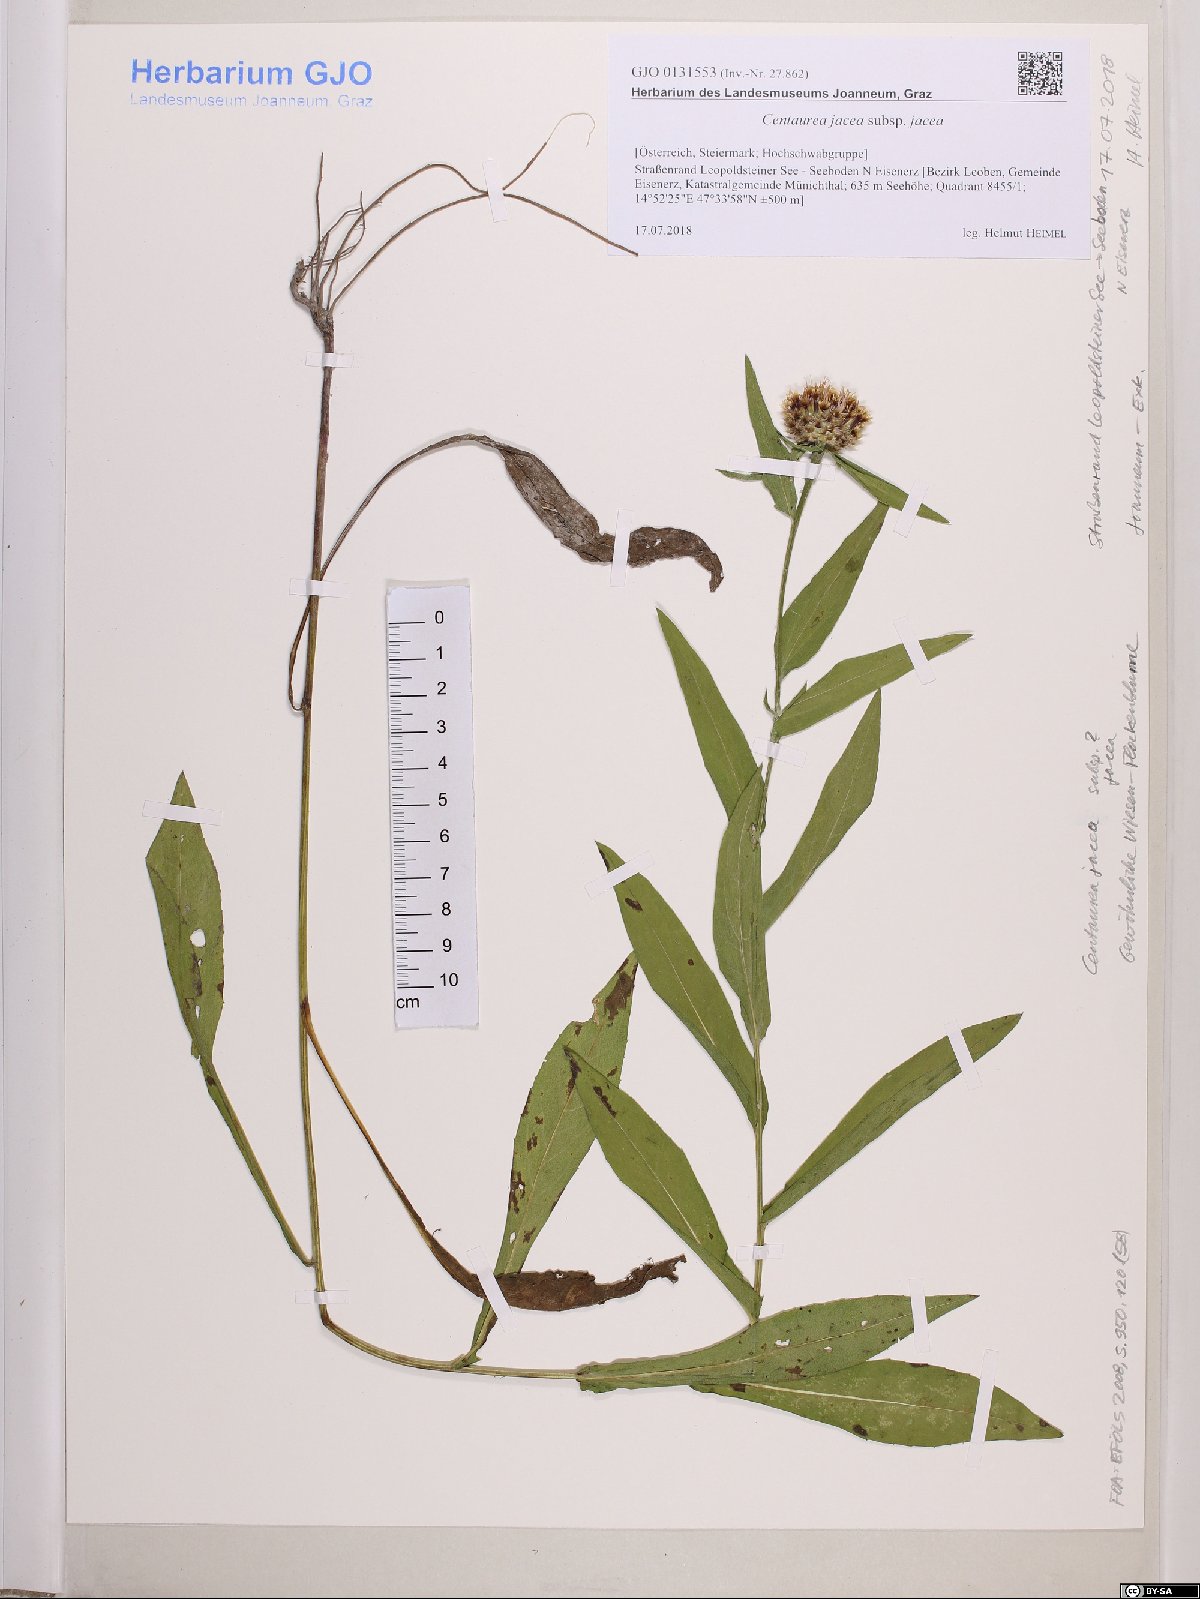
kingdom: Plantae
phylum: Tracheophyta
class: Magnoliopsida
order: Asterales
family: Asteraceae
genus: Centaurea
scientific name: Centaurea jacea
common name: Brown knapweed
